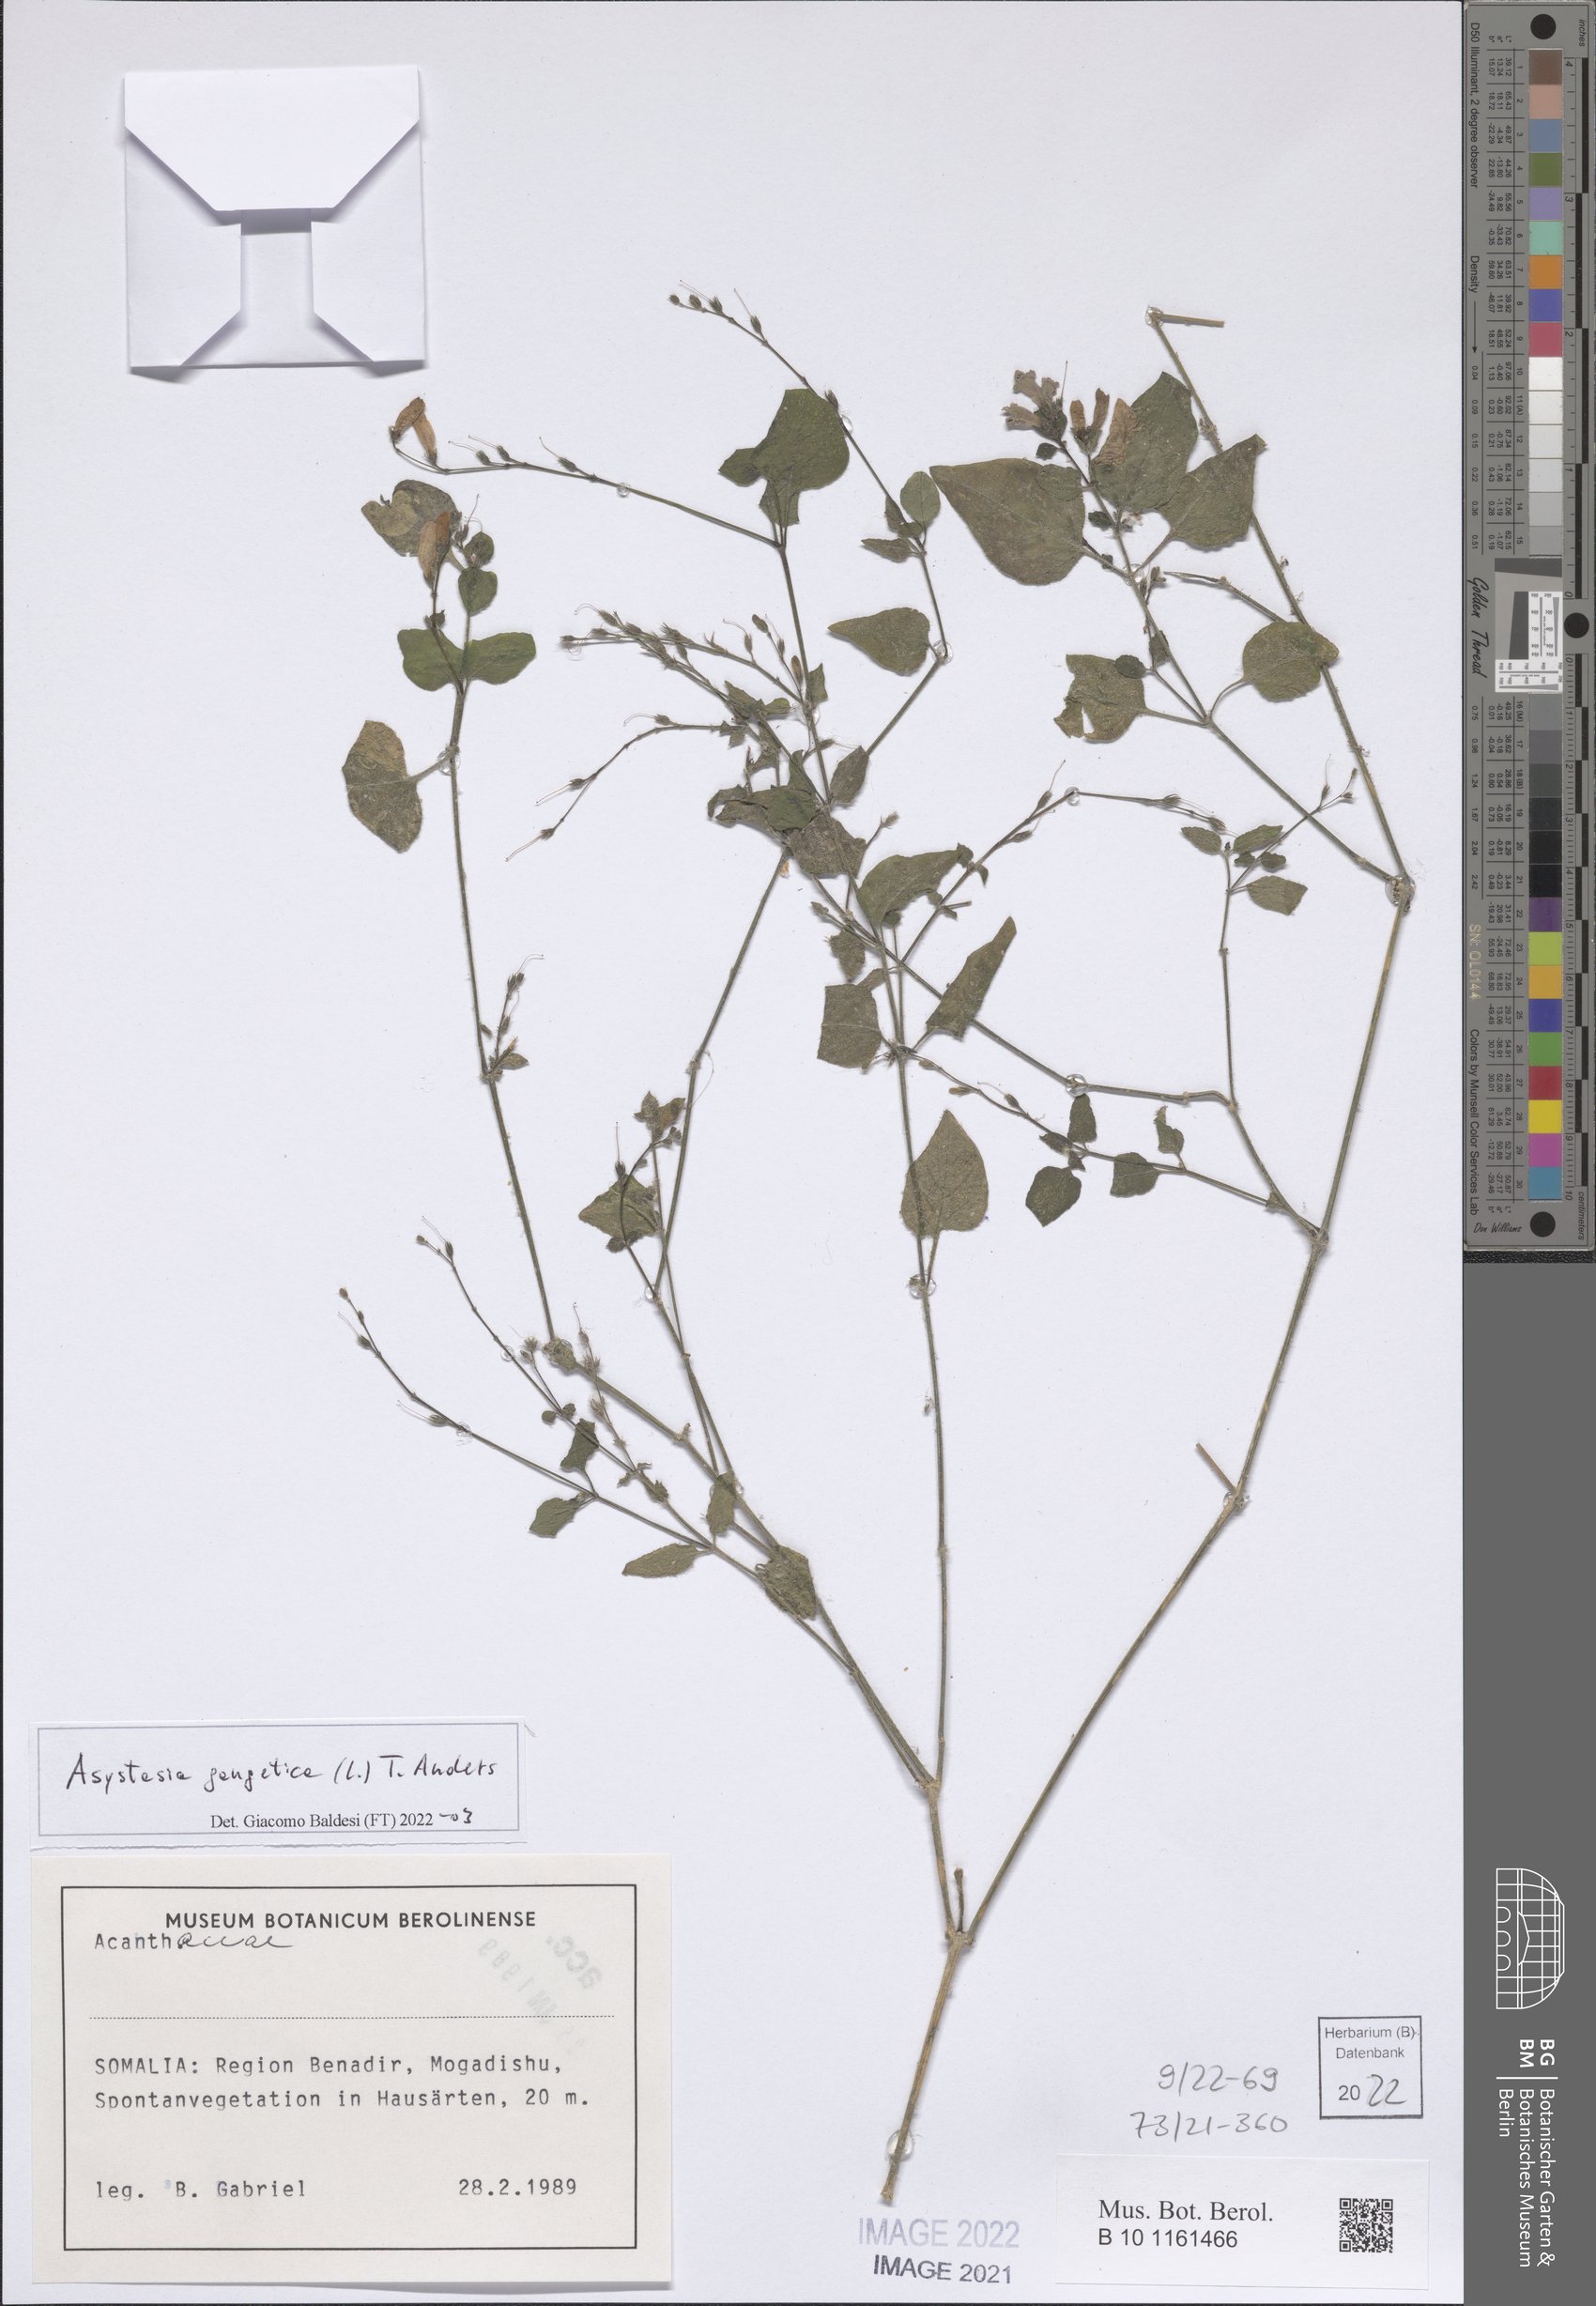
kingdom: Plantae
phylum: Tracheophyta
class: Magnoliopsida
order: Lamiales
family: Acanthaceae
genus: Asystasia
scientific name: Asystasia gangetica
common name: Chinese violet
